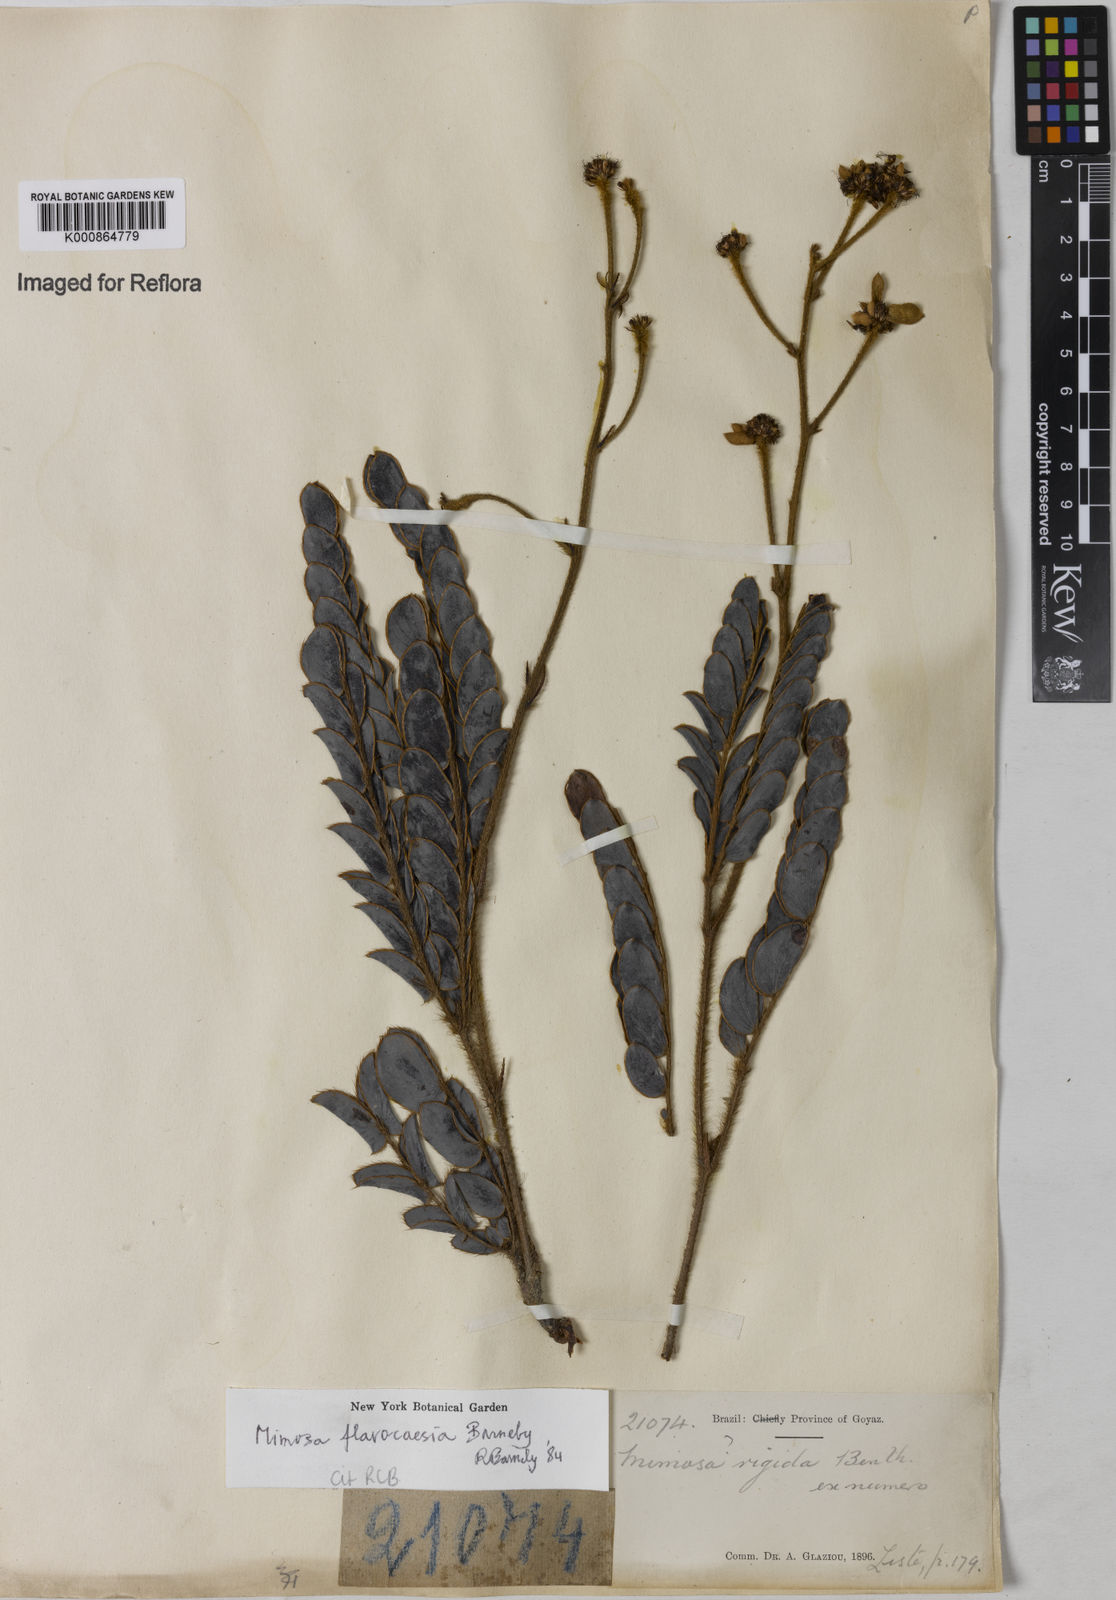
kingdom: Plantae
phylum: Tracheophyta
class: Magnoliopsida
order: Fabales
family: Fabaceae
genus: Mimosa
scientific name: Mimosa
